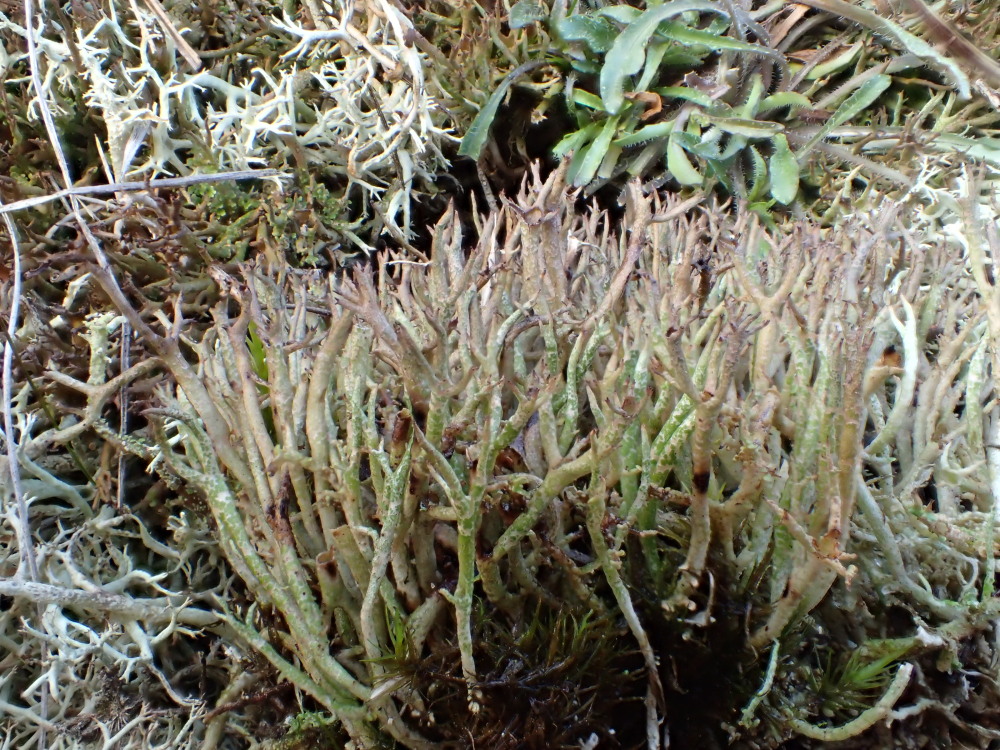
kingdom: Fungi
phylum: Ascomycota
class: Lecanoromycetes
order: Lecanorales
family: Cladoniaceae
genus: Cladonia
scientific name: Cladonia crispata
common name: takket bægerlav
